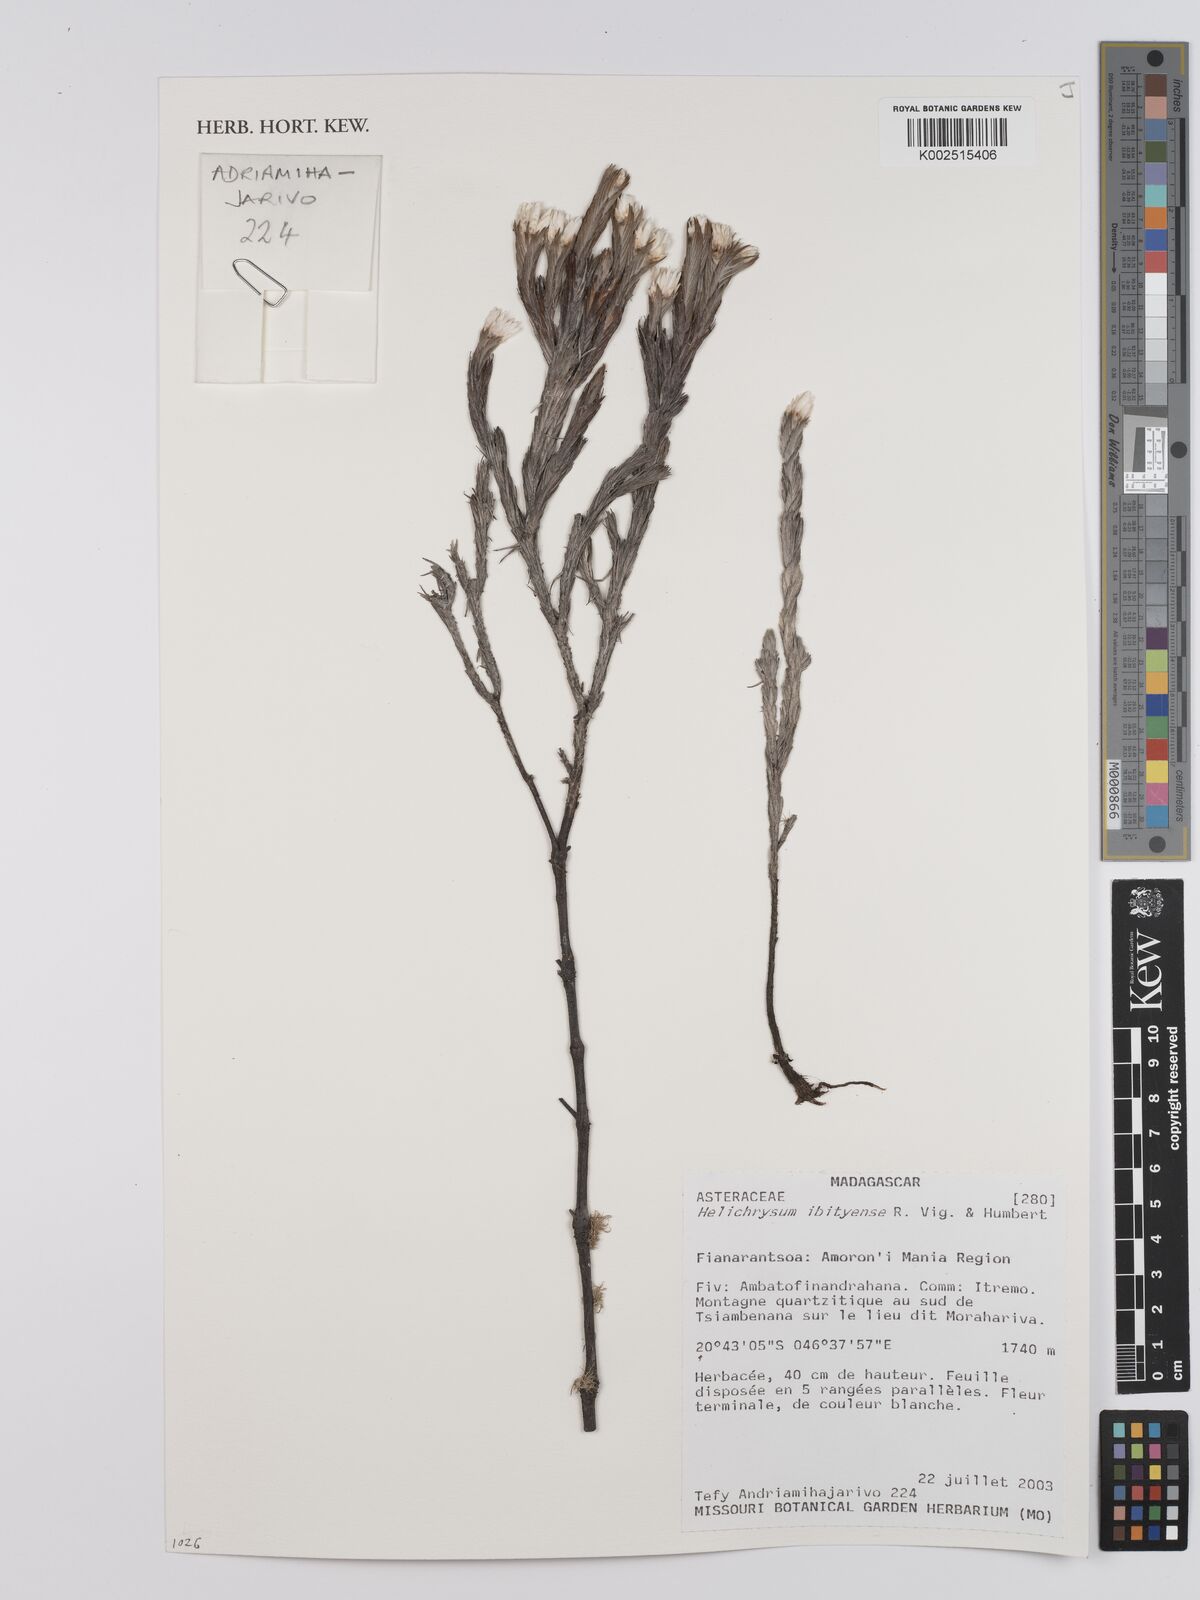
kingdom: Plantae
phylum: Tracheophyta
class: Magnoliopsida
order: Asterales
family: Asteraceae
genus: Helichrysum
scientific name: Helichrysum ibityense
